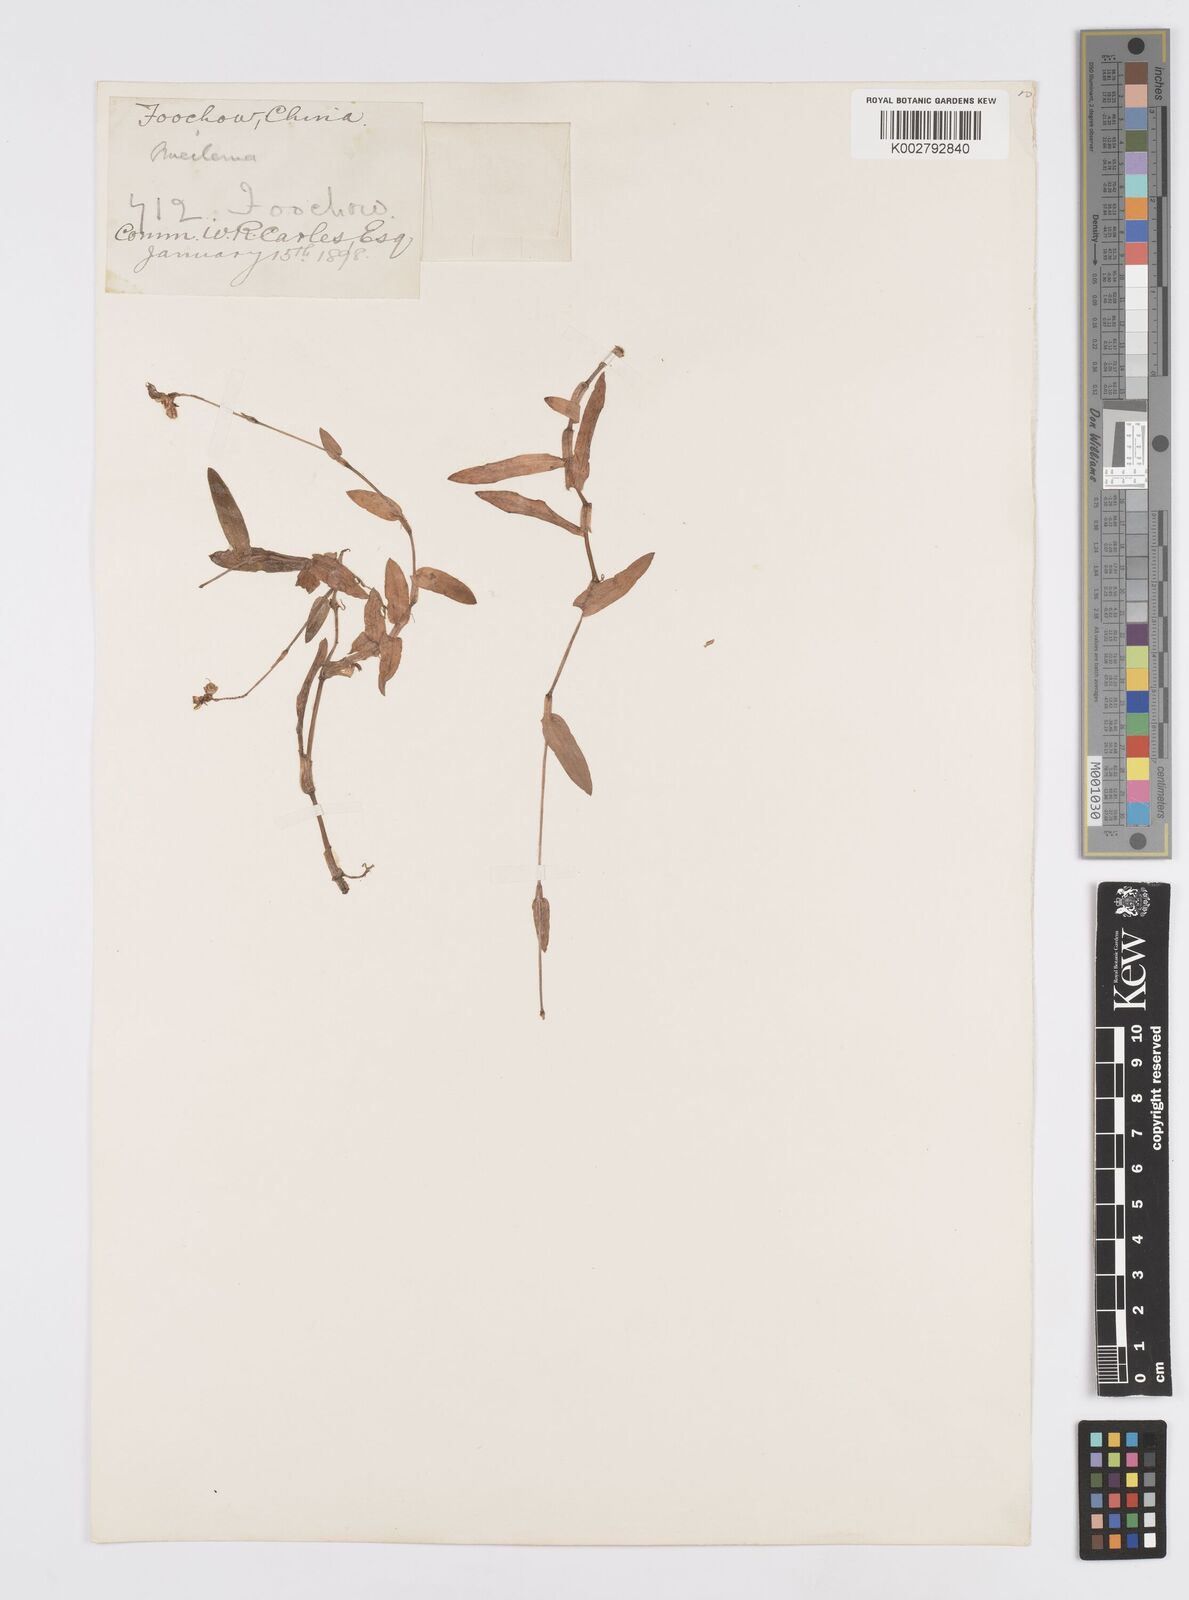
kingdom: Plantae
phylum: Tracheophyta
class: Liliopsida
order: Commelinales
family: Commelinaceae
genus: Murdannia
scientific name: Murdannia loriformis
